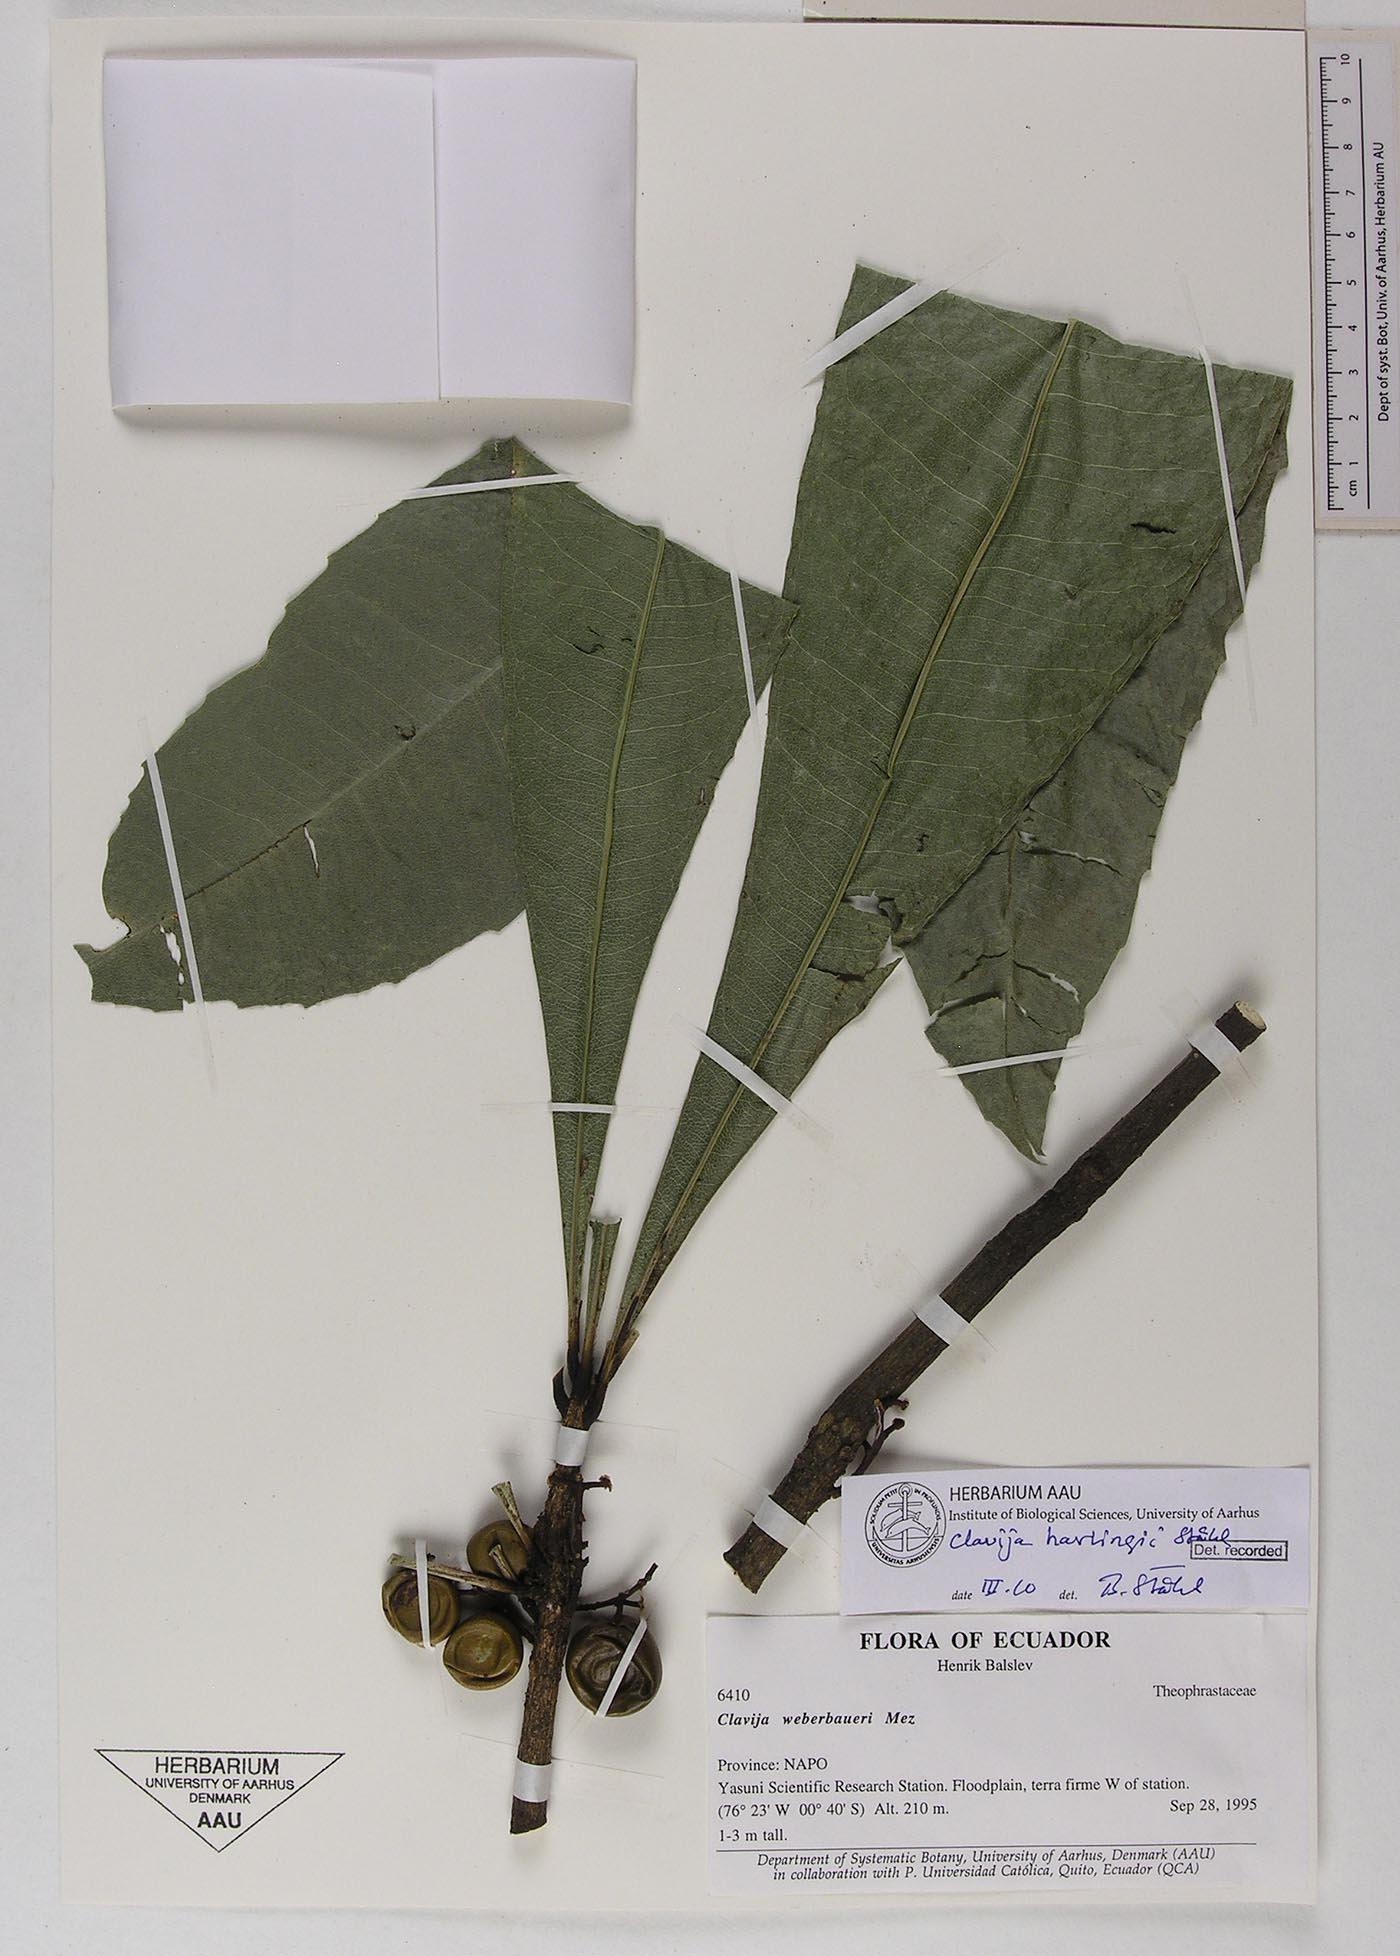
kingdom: Plantae
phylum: Tracheophyta
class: Magnoliopsida
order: Ericales
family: Primulaceae
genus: Clavija
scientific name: Clavija harlingii
